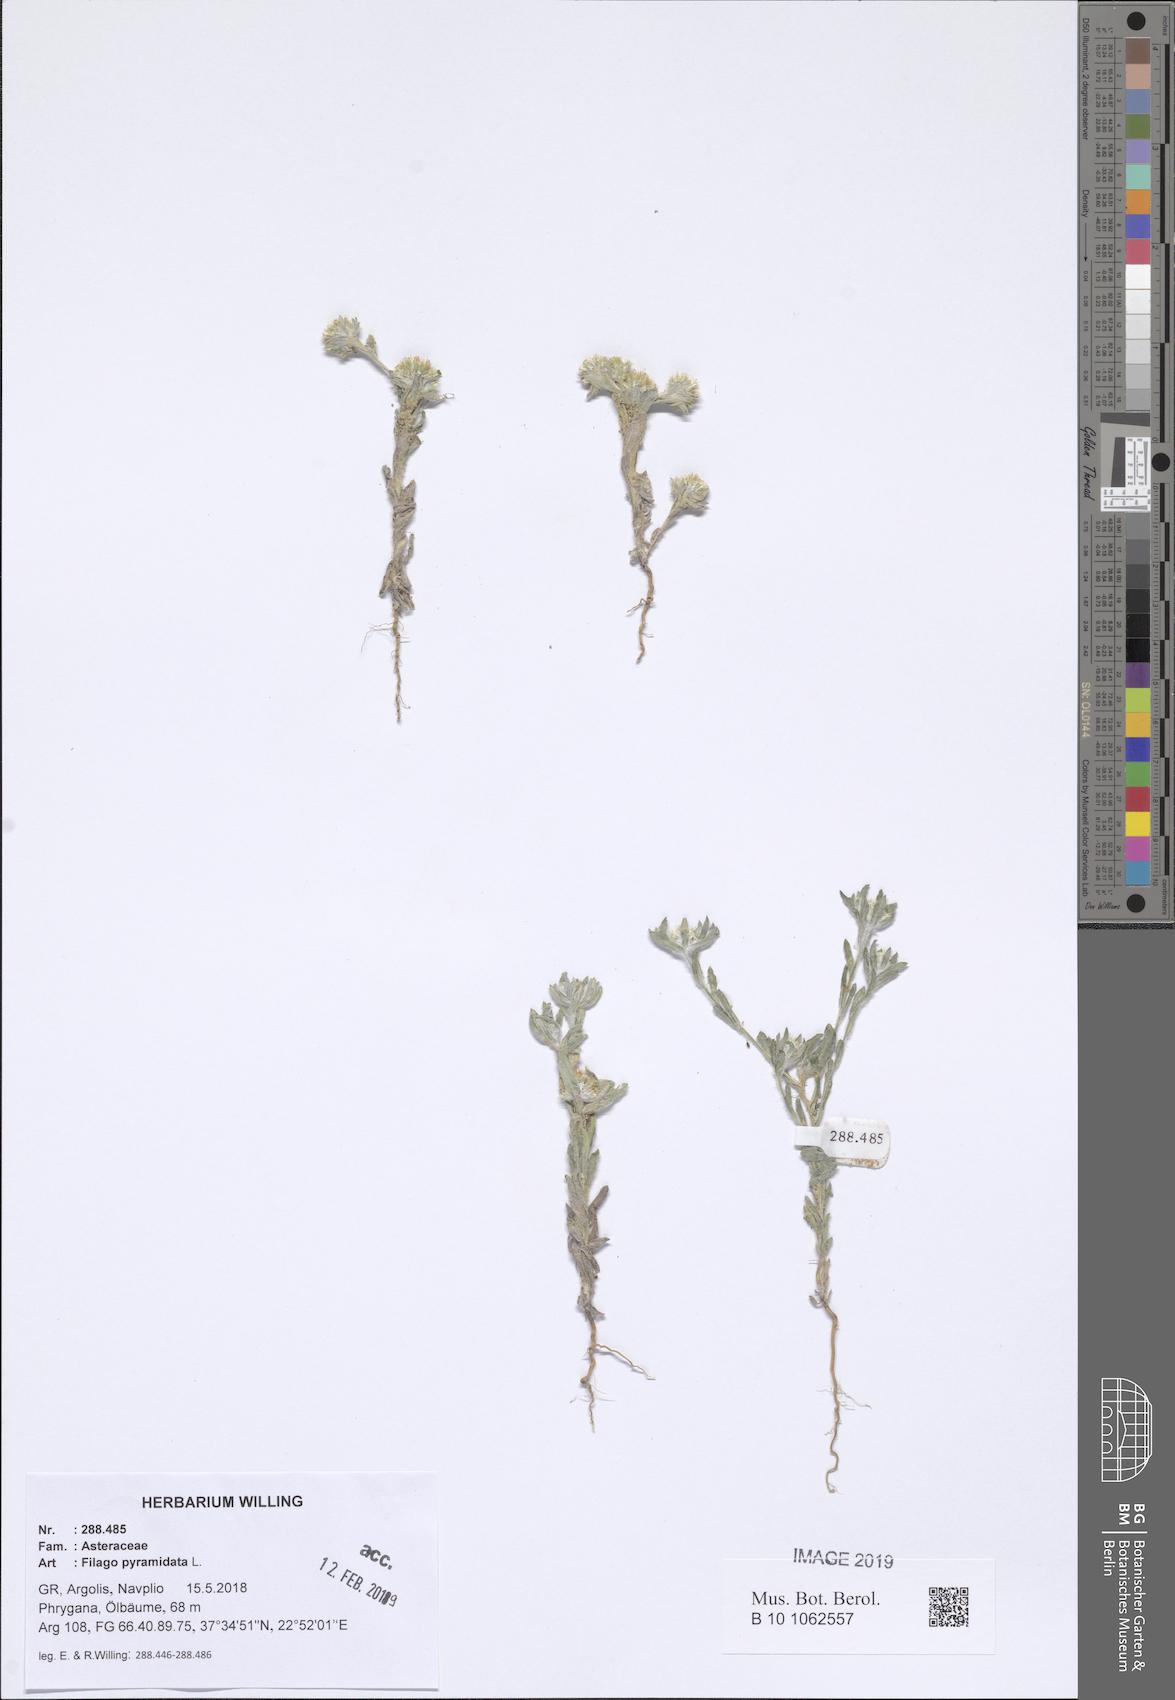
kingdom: Plantae
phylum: Tracheophyta
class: Magnoliopsida
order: Asterales
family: Asteraceae
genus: Filago
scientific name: Filago pyramidata
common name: Broad-leaved cudweed
